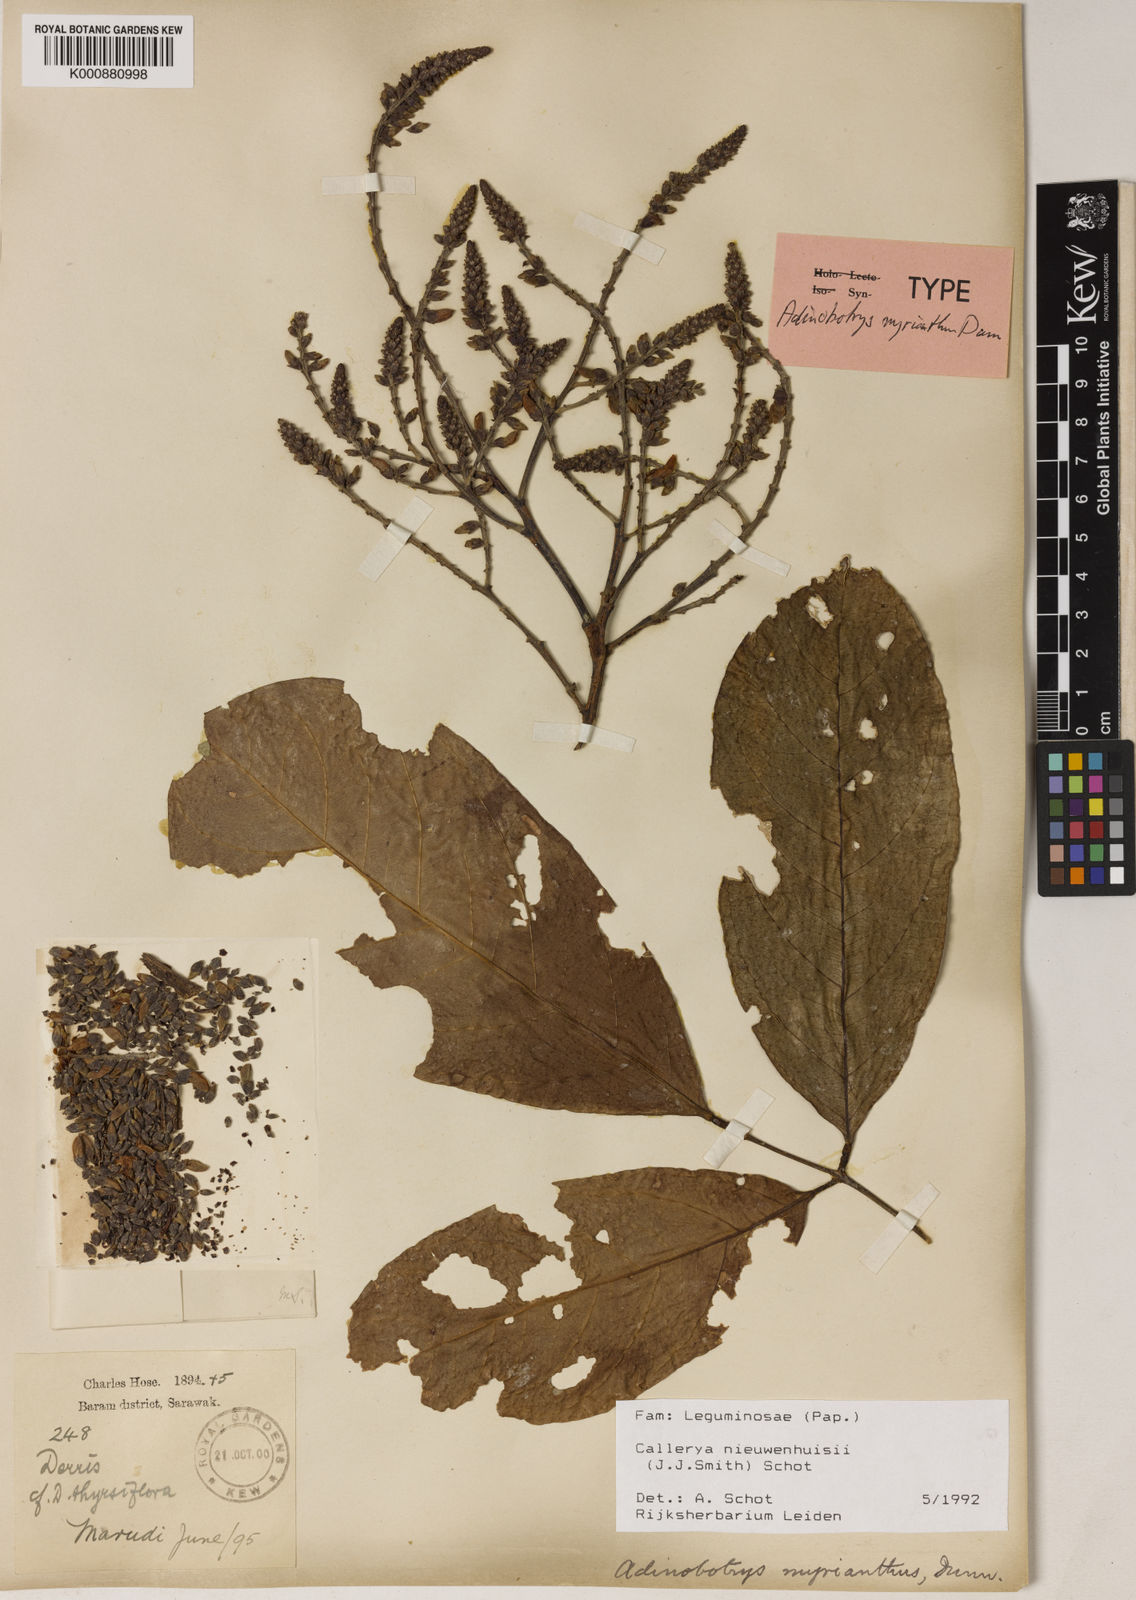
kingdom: Plantae
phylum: Tracheophyta
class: Magnoliopsida
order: Fabales
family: Fabaceae
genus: Whitfordiodendron
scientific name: Whitfordiodendron nieuwenhuisii
